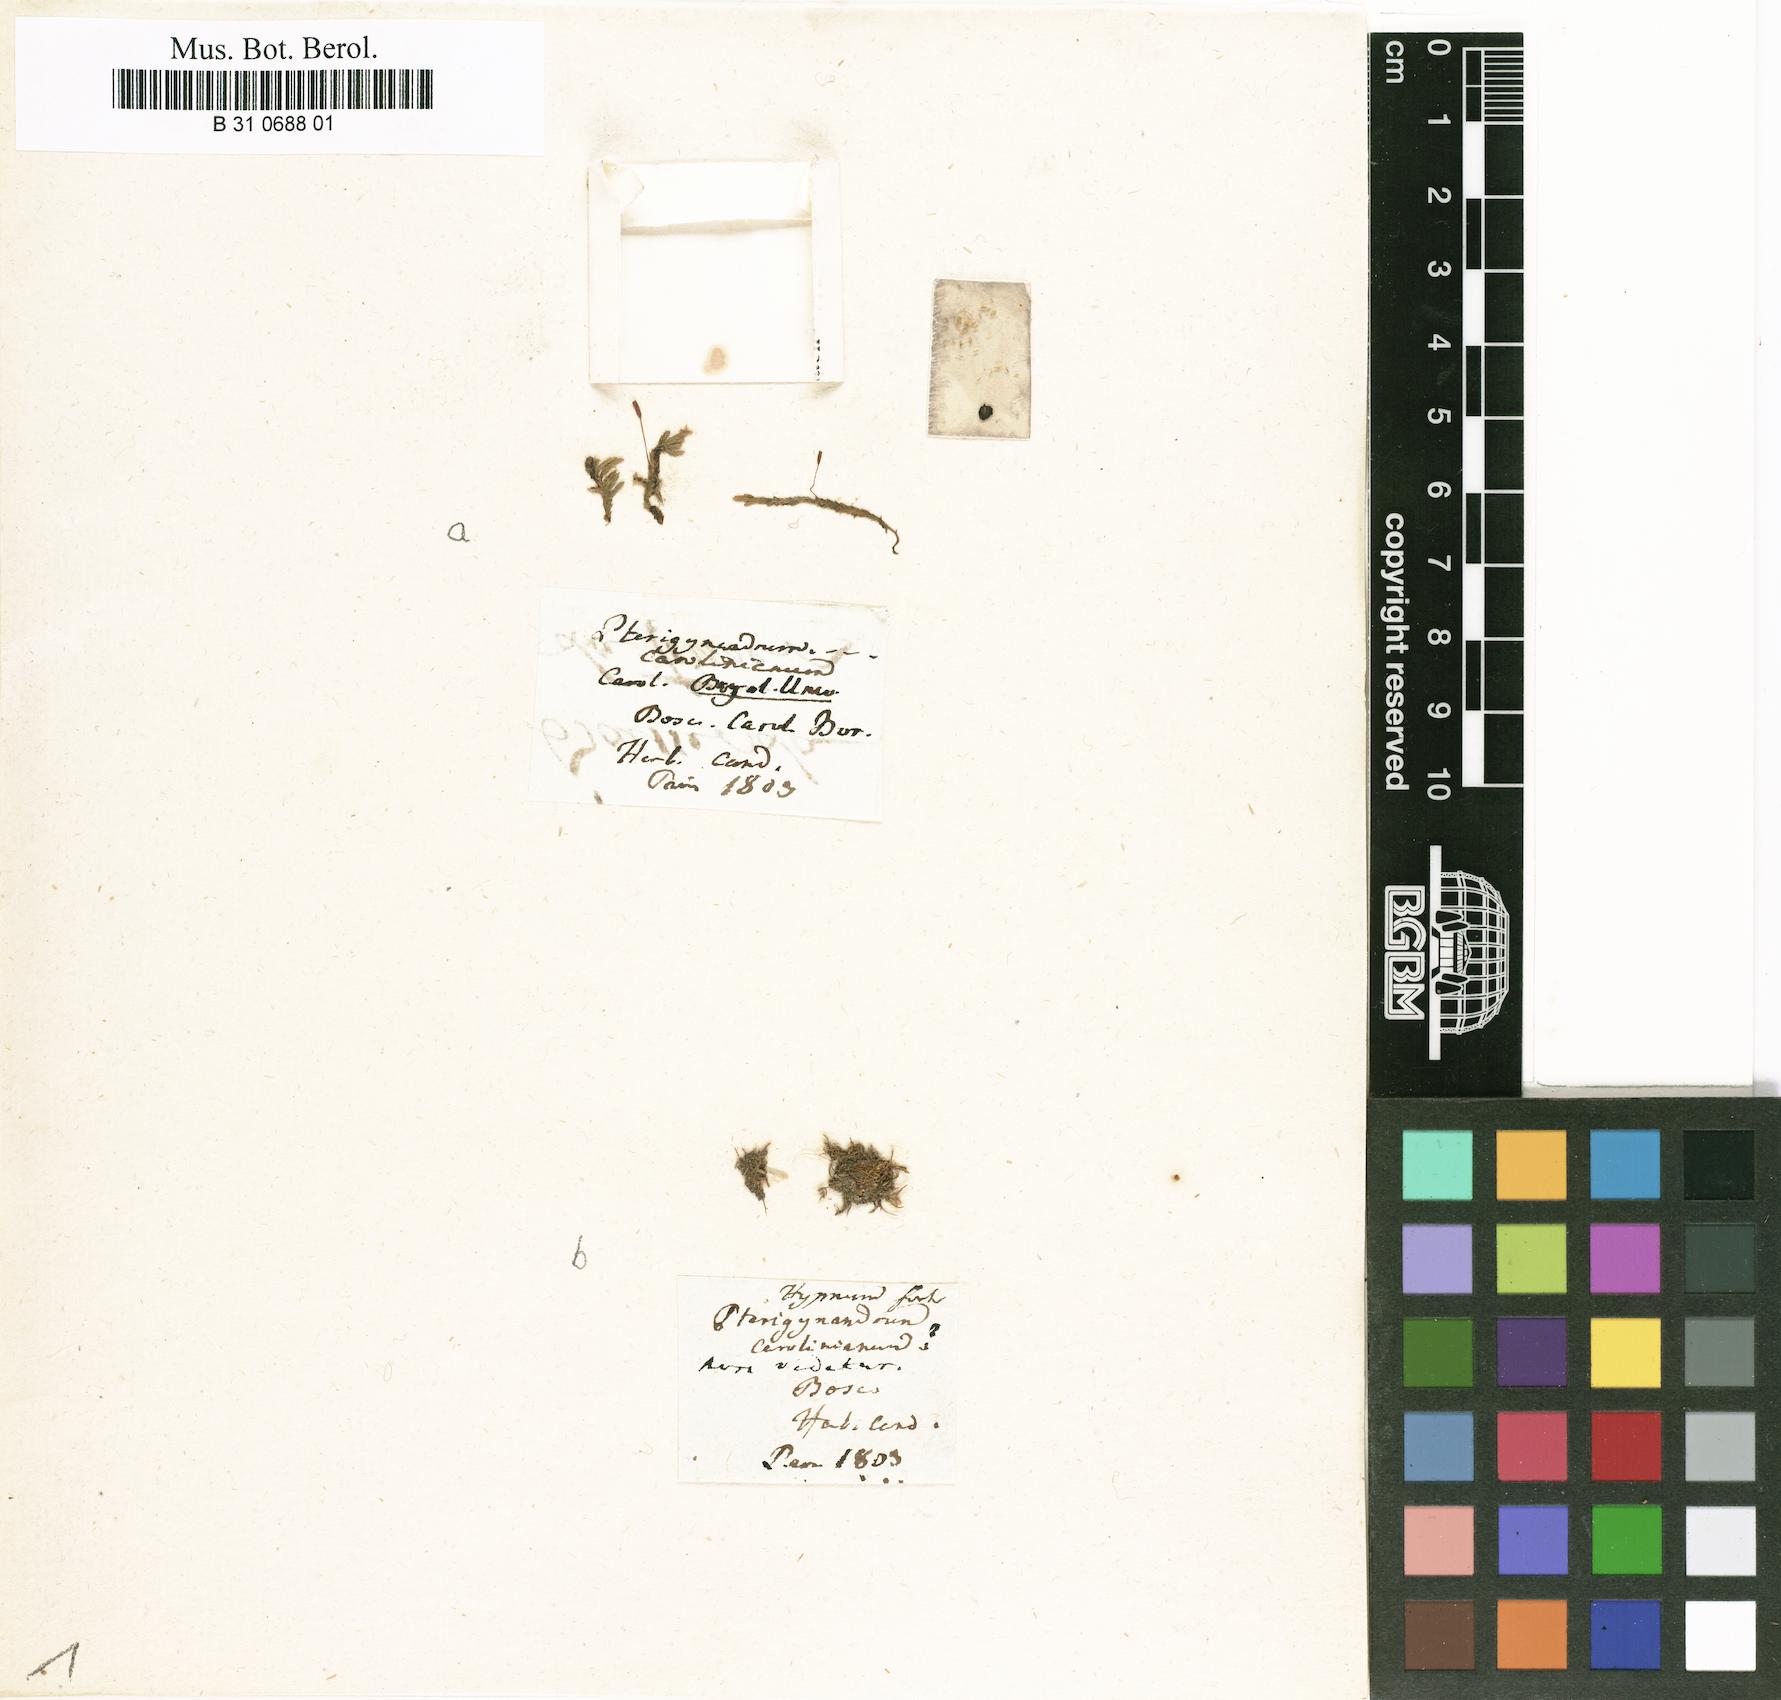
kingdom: Plantae
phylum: Bryophyta
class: Bryopsida
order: Hypnales
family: Entodontaceae
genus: Entodon
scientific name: Entodon seductrix
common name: Round-stemmed entodon moss
